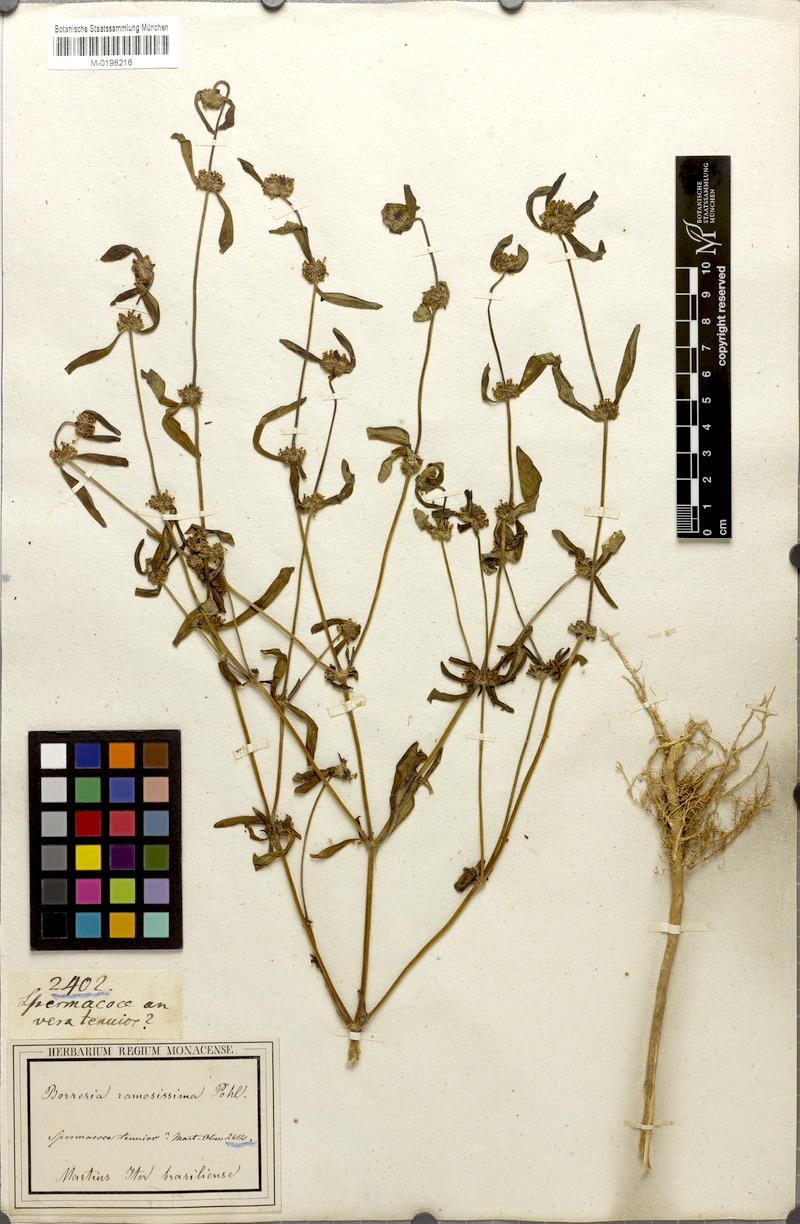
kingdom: Plantae
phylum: Tracheophyta
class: Magnoliopsida
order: Gentianales
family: Rubiaceae
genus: Mitracarpus
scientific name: Mitracarpus hirtus
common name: Tropical girdlepod
